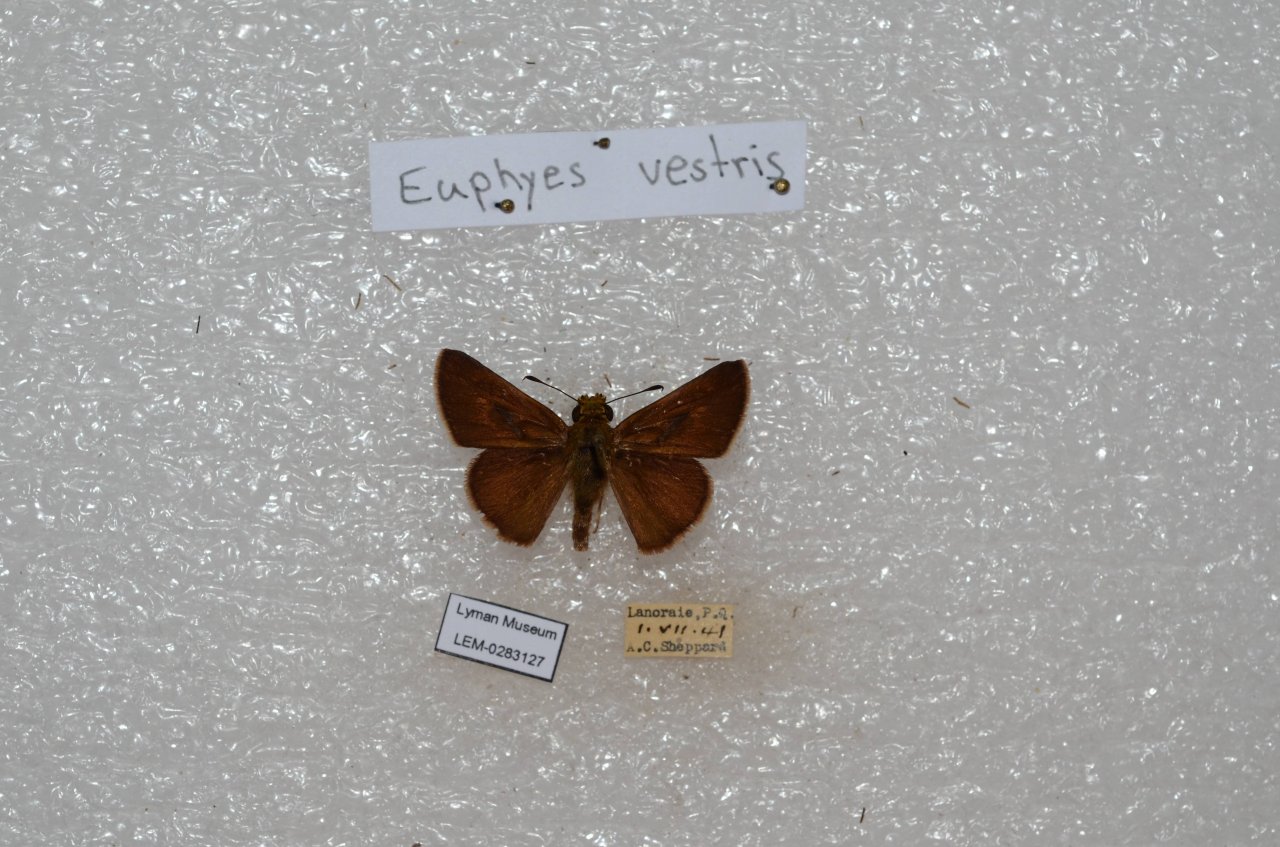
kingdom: Animalia
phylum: Arthropoda
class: Insecta
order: Lepidoptera
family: Hesperiidae
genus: Euphyes
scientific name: Euphyes vestris
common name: Dun Skipper
